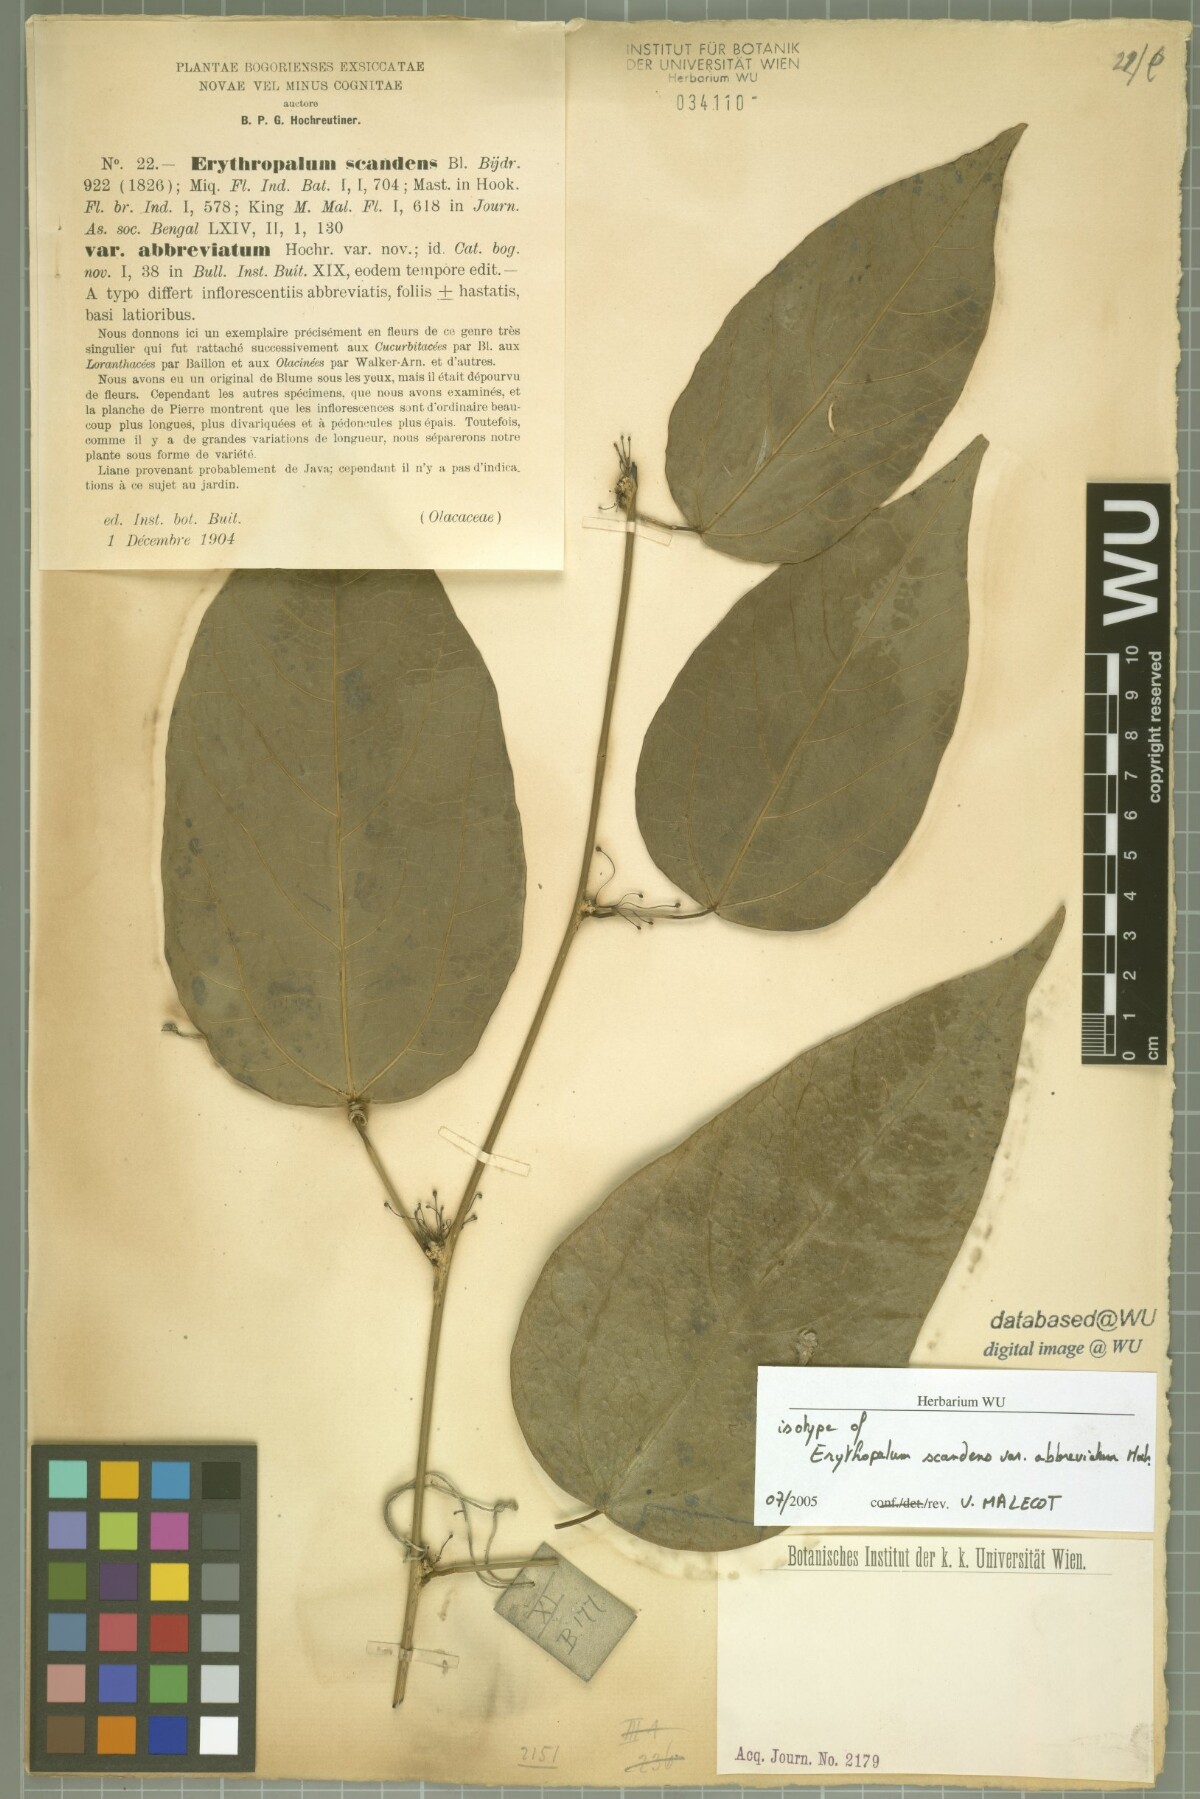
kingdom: Plantae
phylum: Tracheophyta
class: Magnoliopsida
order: Santalales
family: Erythropalaceae
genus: Erythropalum
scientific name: Erythropalum scandens
